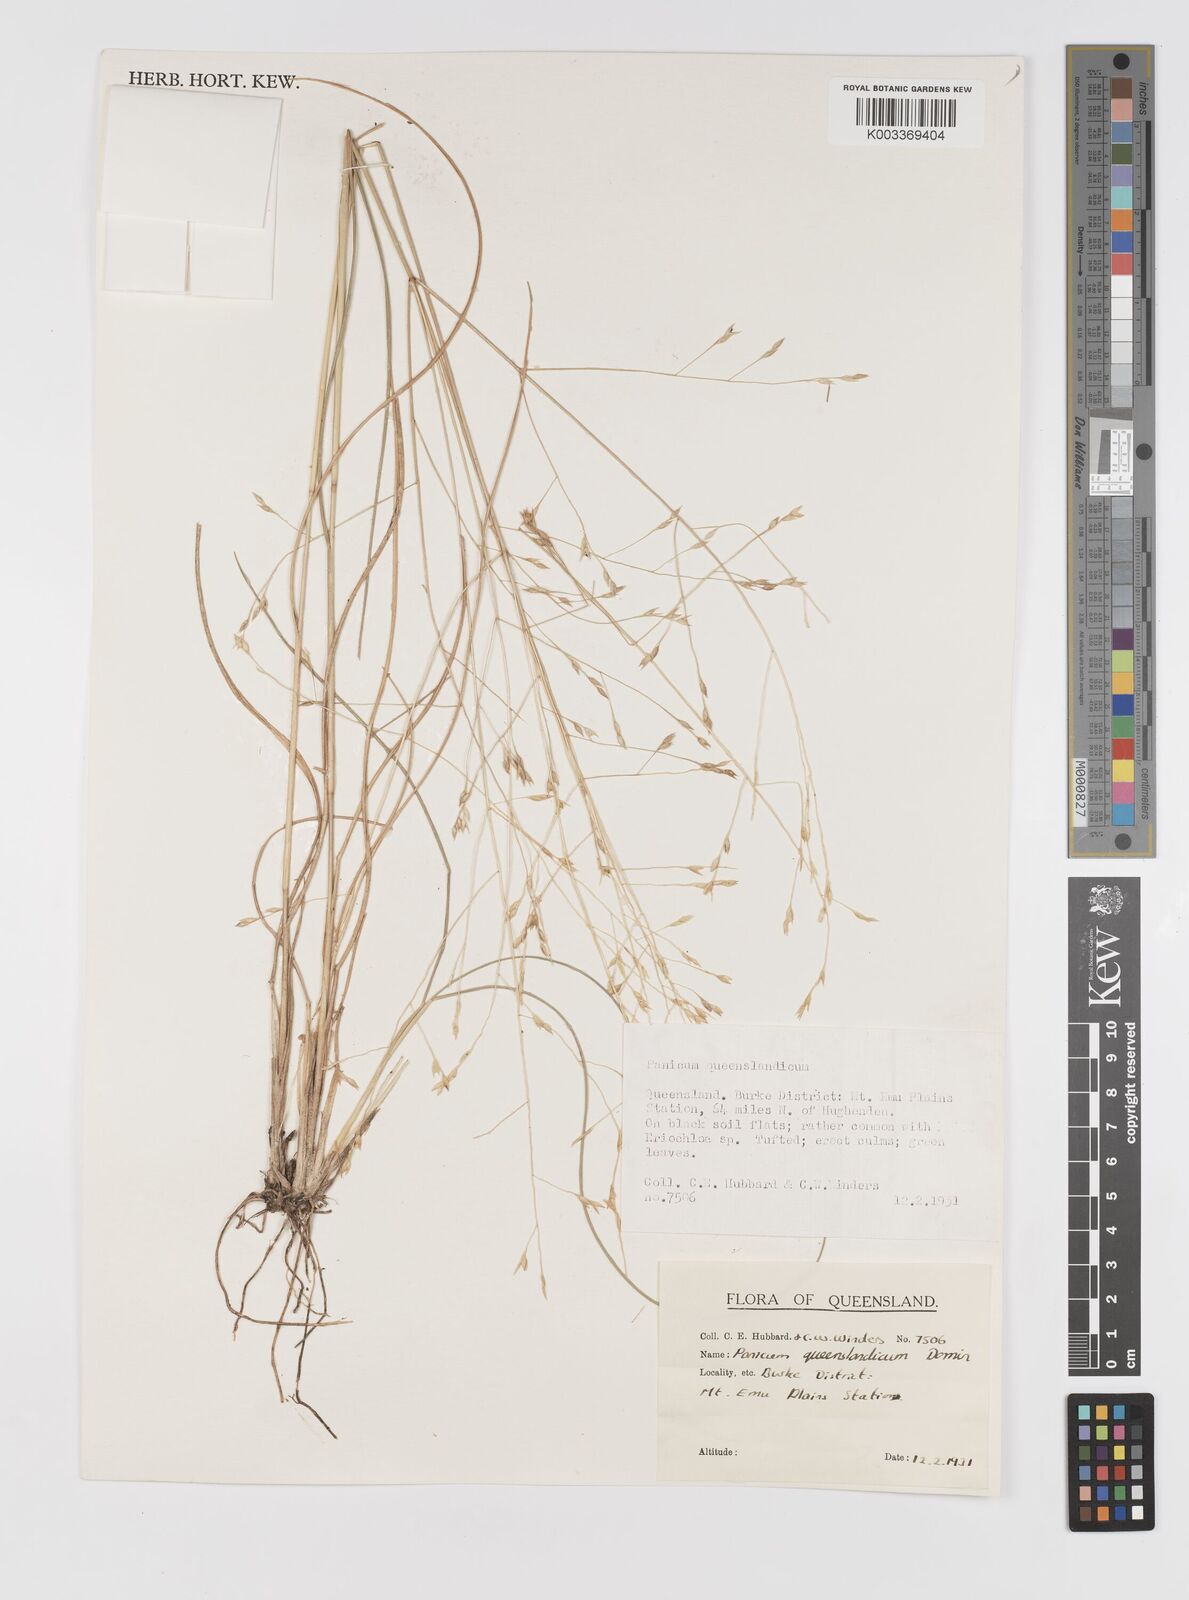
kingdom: Plantae
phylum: Tracheophyta
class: Liliopsida
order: Poales
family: Poaceae
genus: Panicum
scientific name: Panicum queenslandicum
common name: Yabila grass
